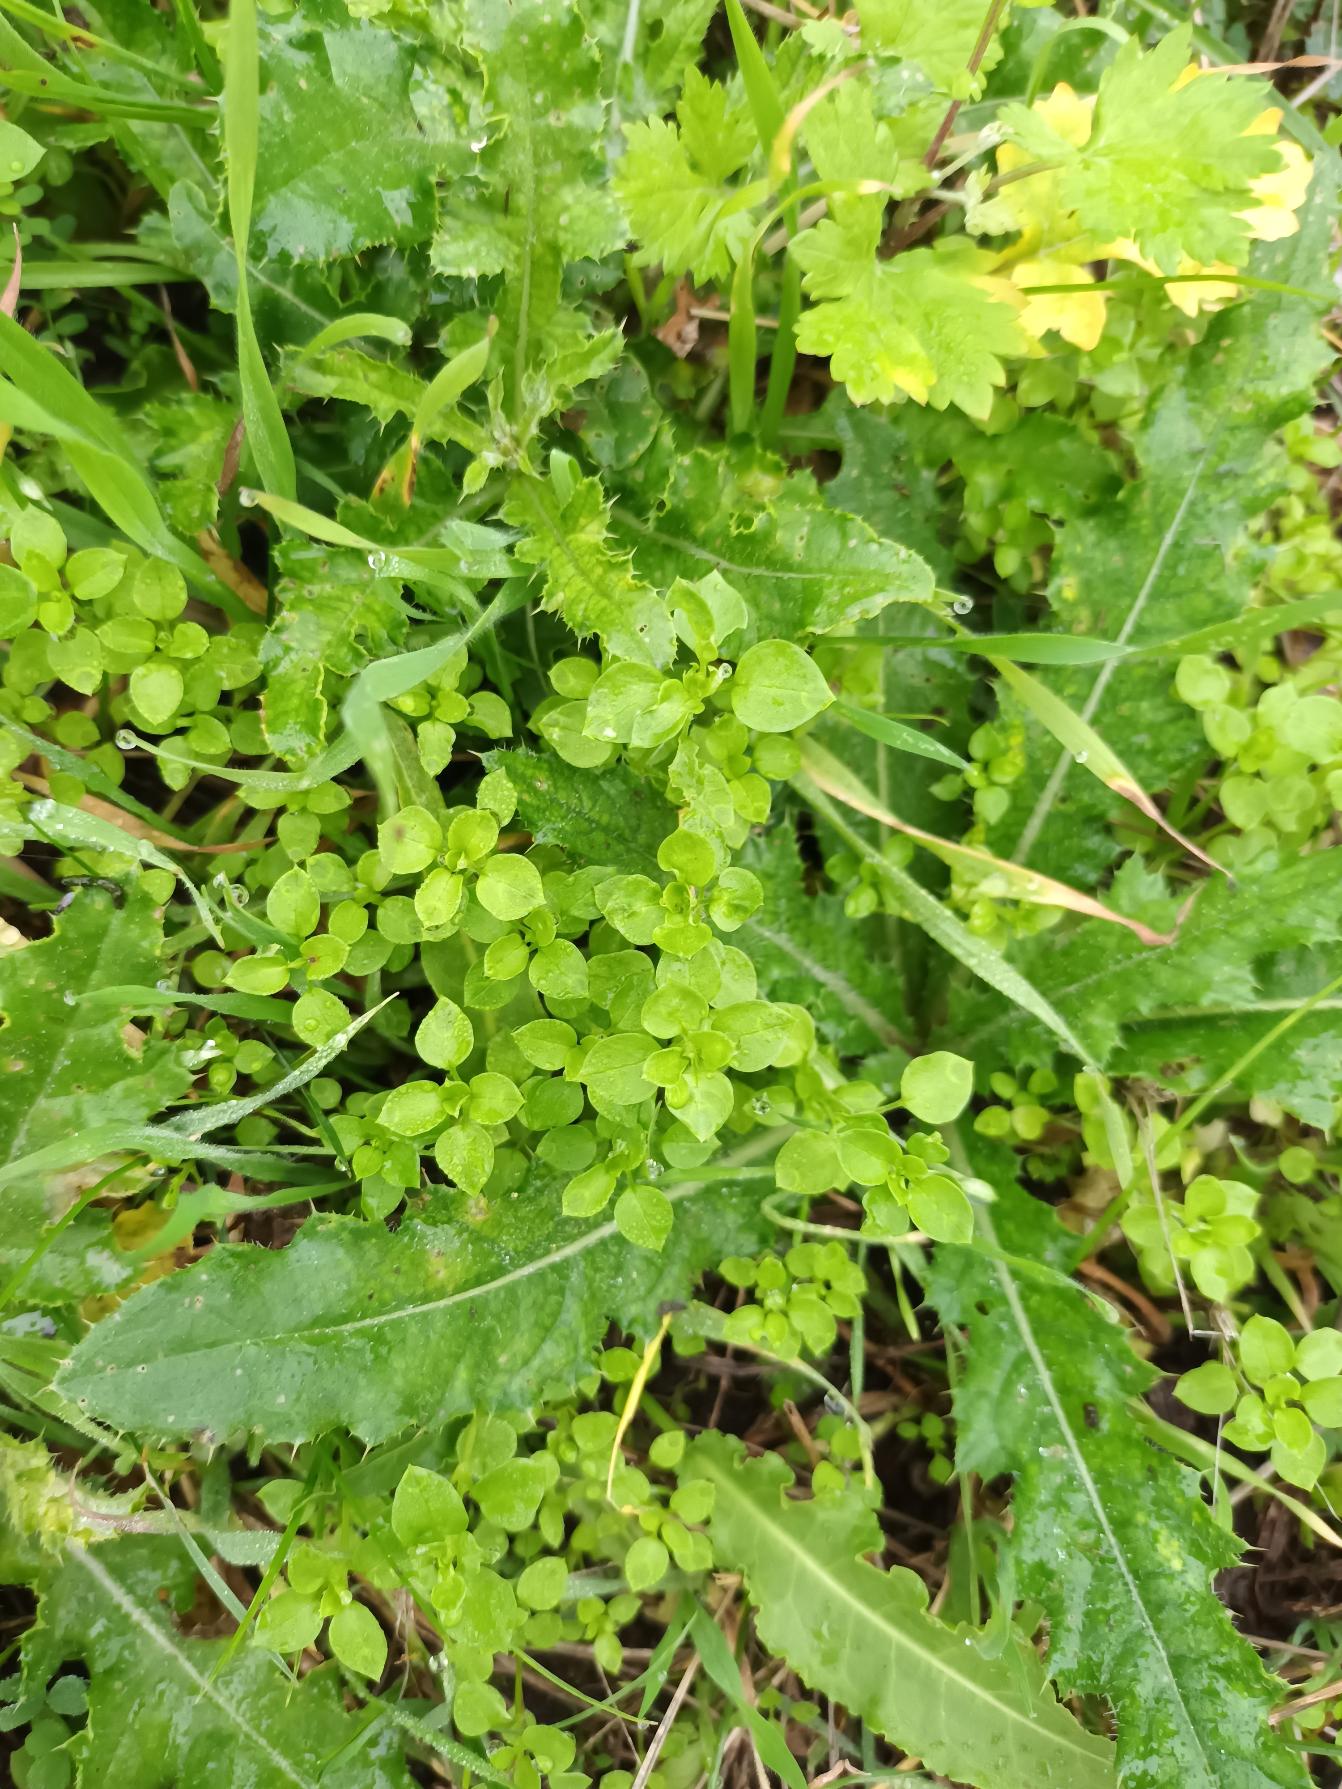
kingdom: Plantae
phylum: Tracheophyta
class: Magnoliopsida
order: Caryophyllales
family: Caryophyllaceae
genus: Stellaria
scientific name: Stellaria media
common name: Almindelig fuglegræs
